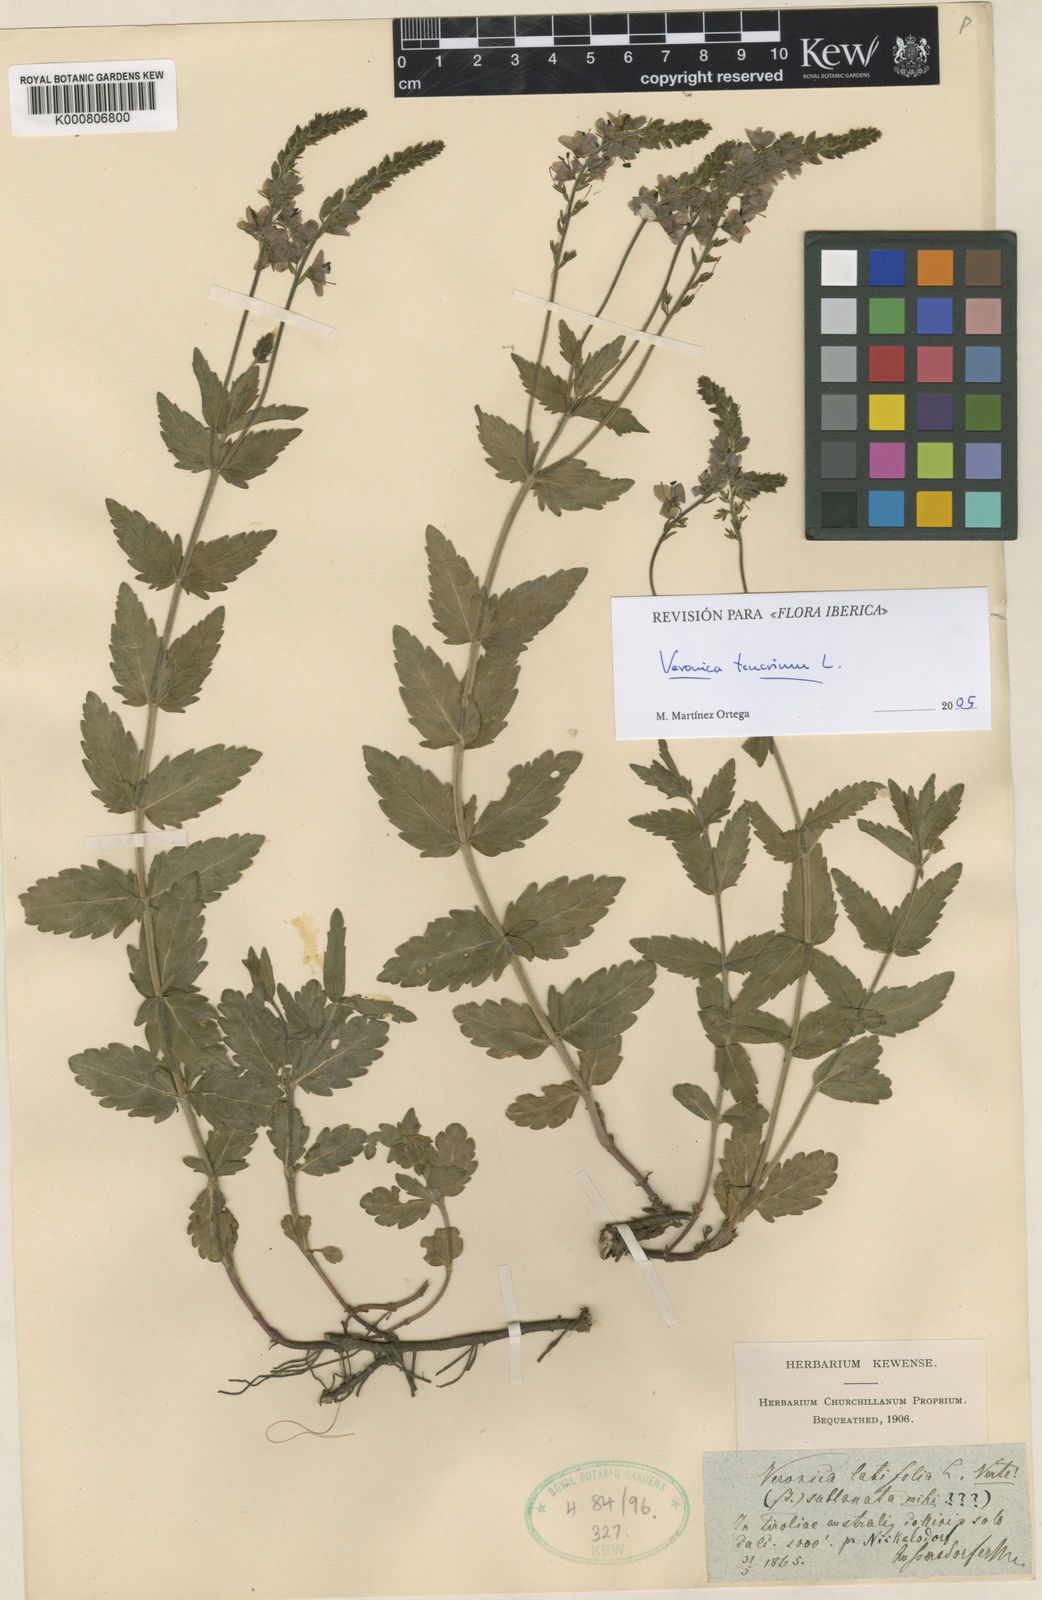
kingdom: Plantae
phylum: Tracheophyta
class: Magnoliopsida
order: Lamiales
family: Plantaginaceae
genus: Veronica
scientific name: Veronica teucrium
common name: Large speedwell
